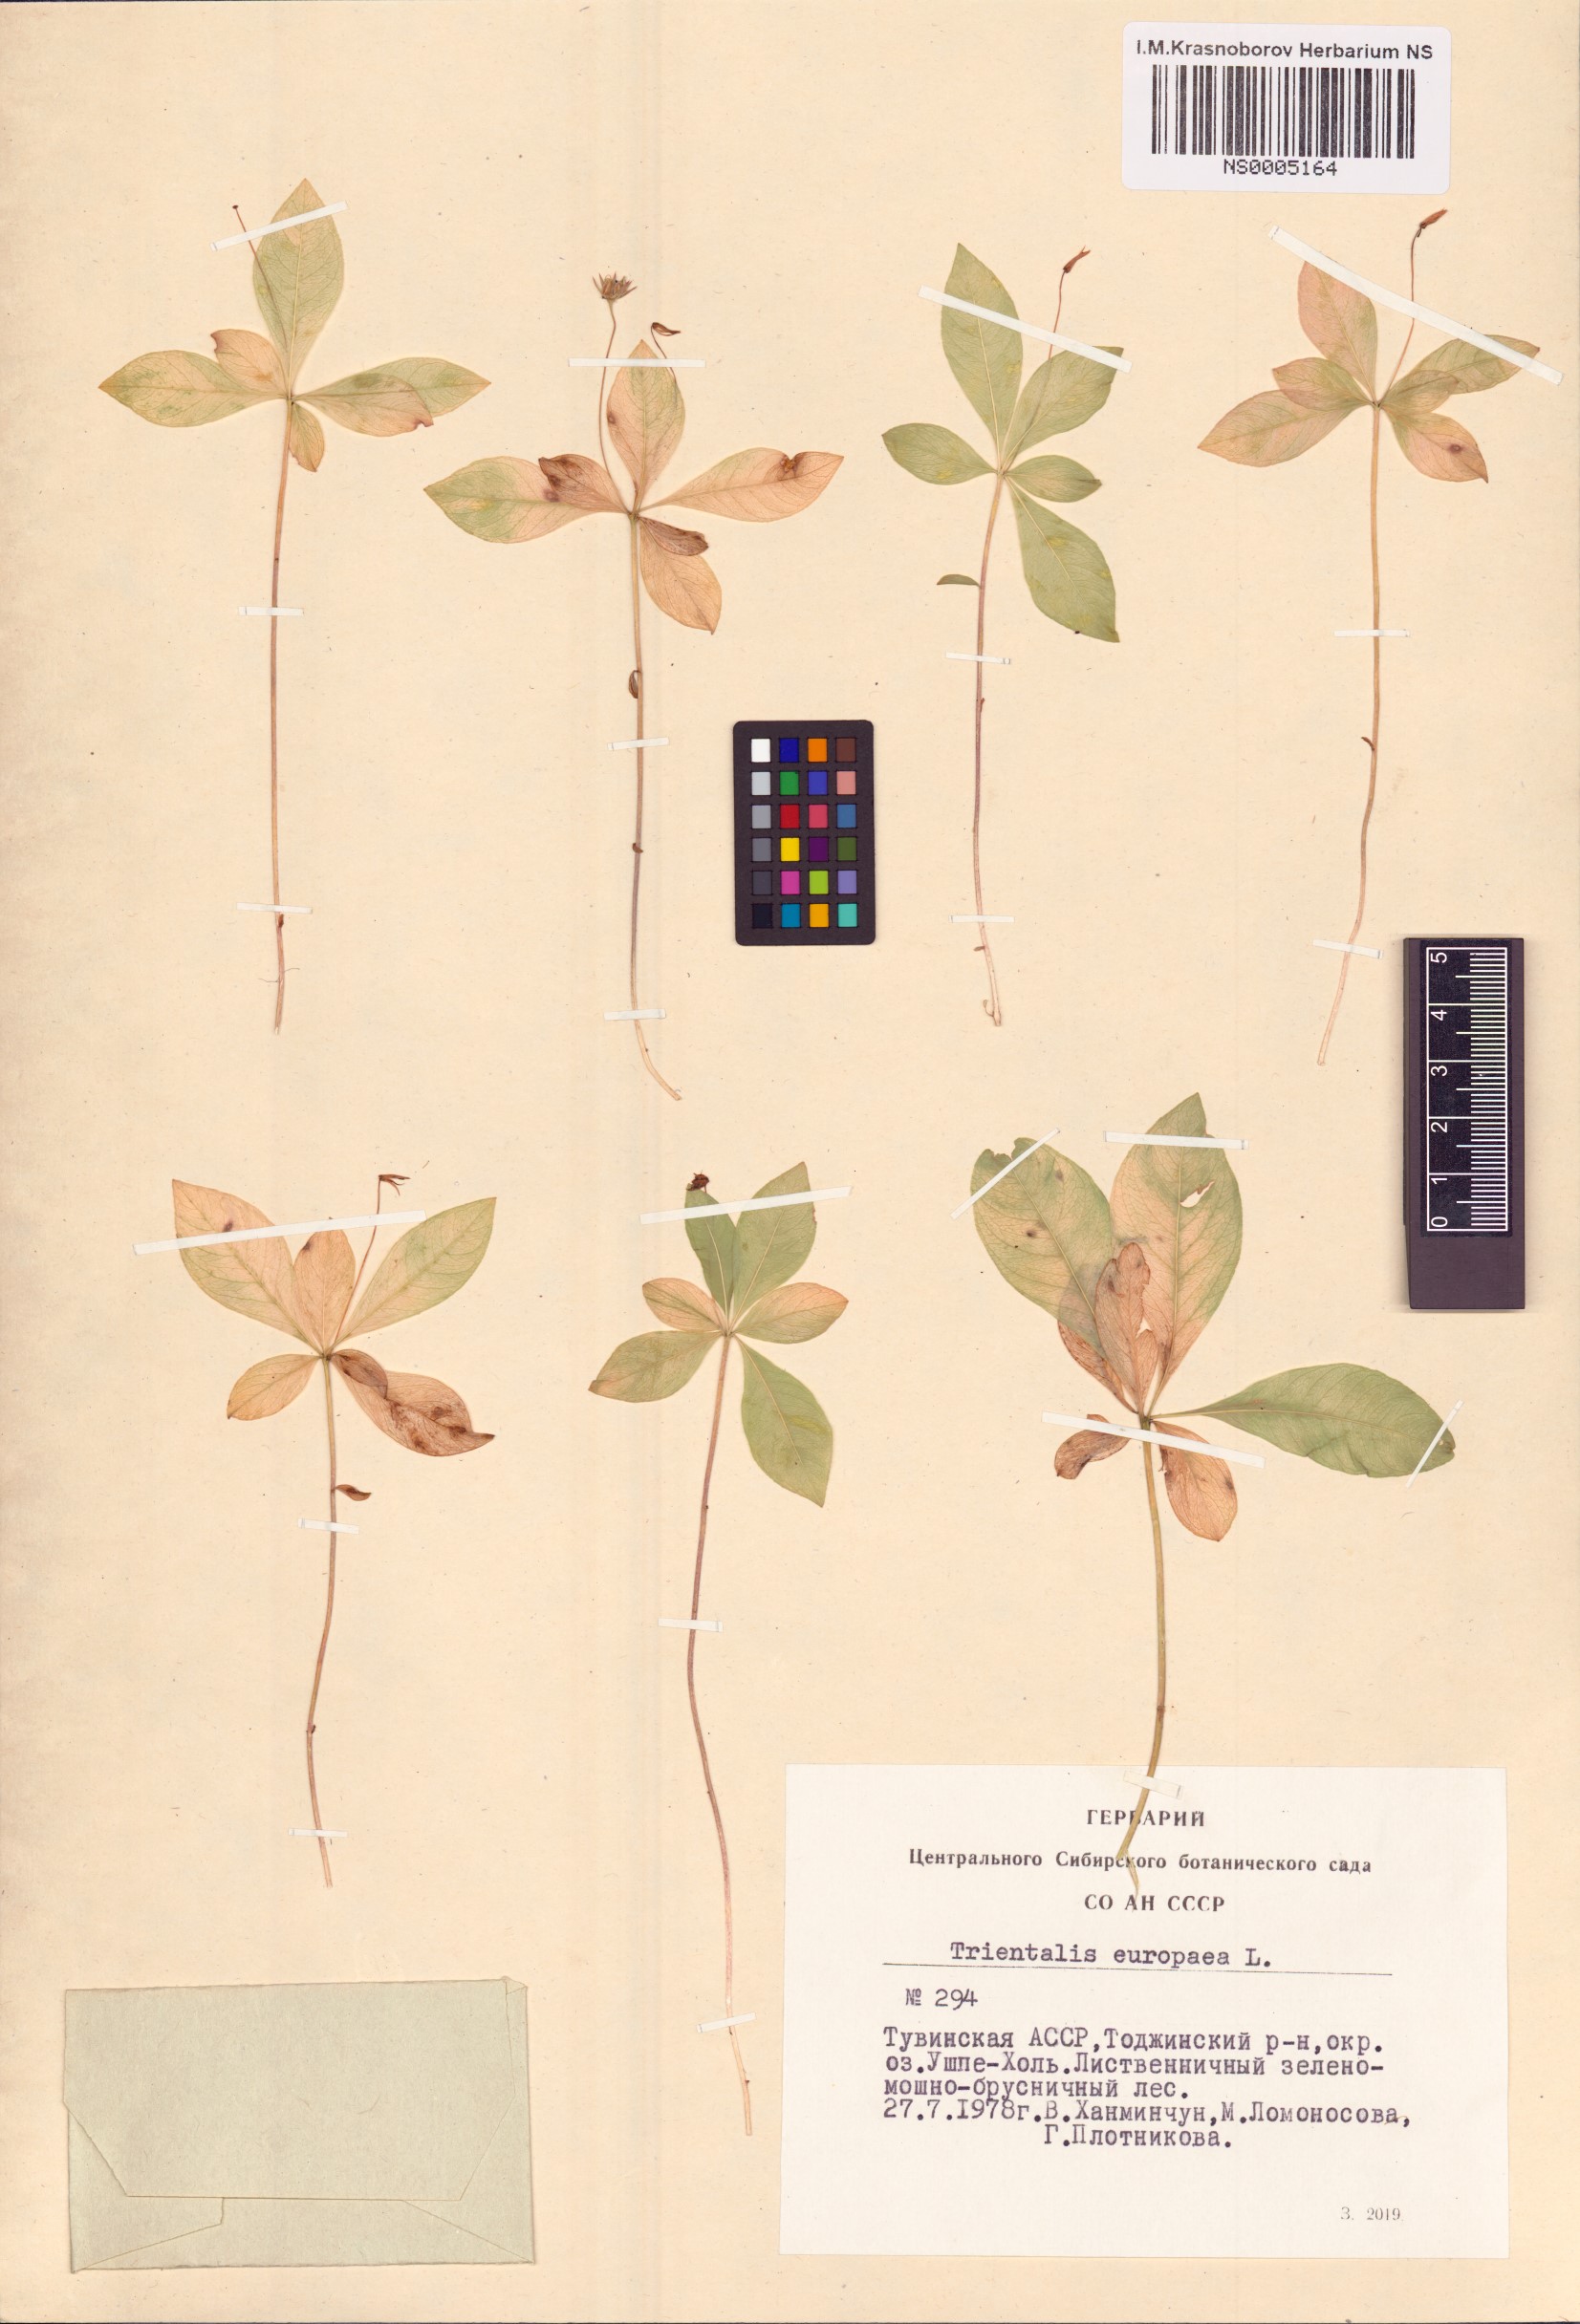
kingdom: Plantae
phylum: Tracheophyta
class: Magnoliopsida
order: Ericales
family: Primulaceae
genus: Lysimachia
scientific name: Lysimachia europaea
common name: Arctic starflower
